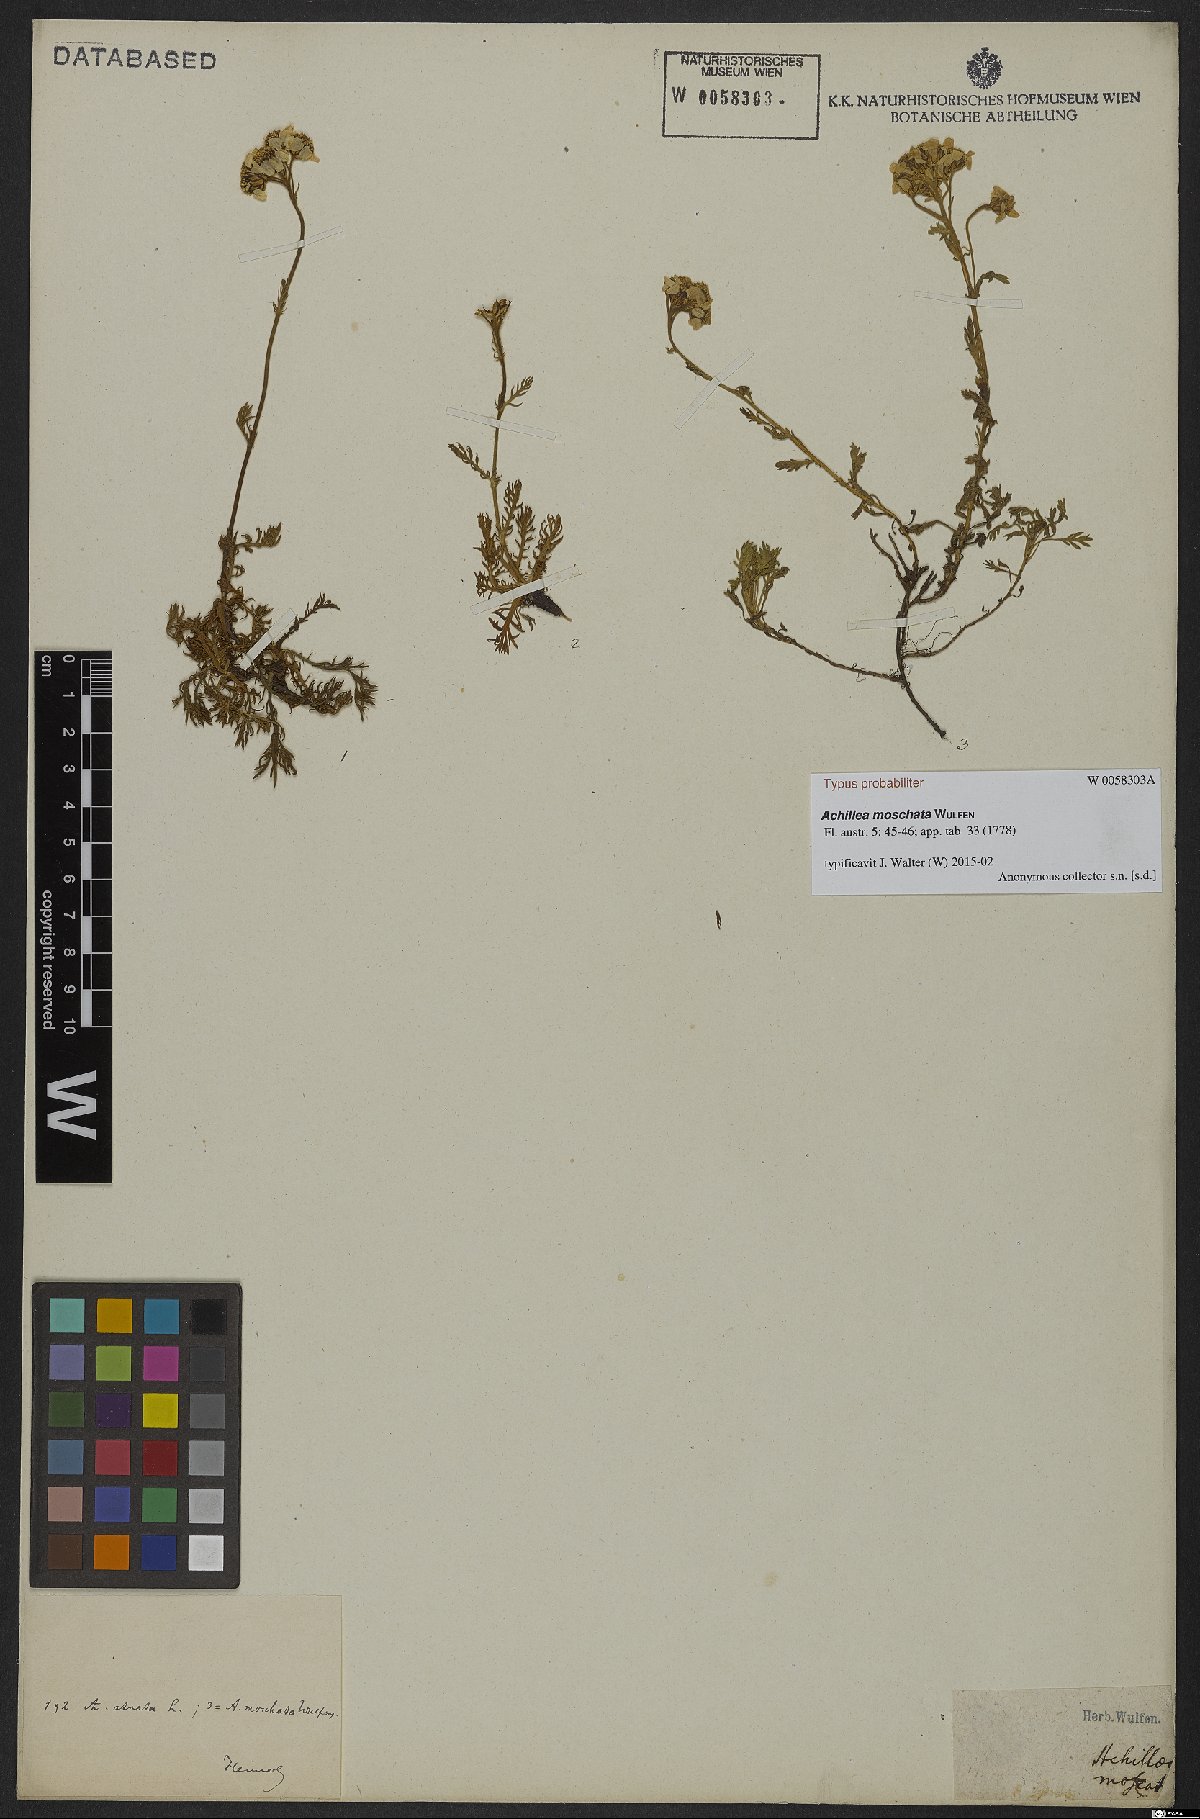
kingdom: Plantae
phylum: Tracheophyta
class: Magnoliopsida
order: Asterales
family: Asteraceae
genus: Achillea
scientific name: Achillea erba-rotta
